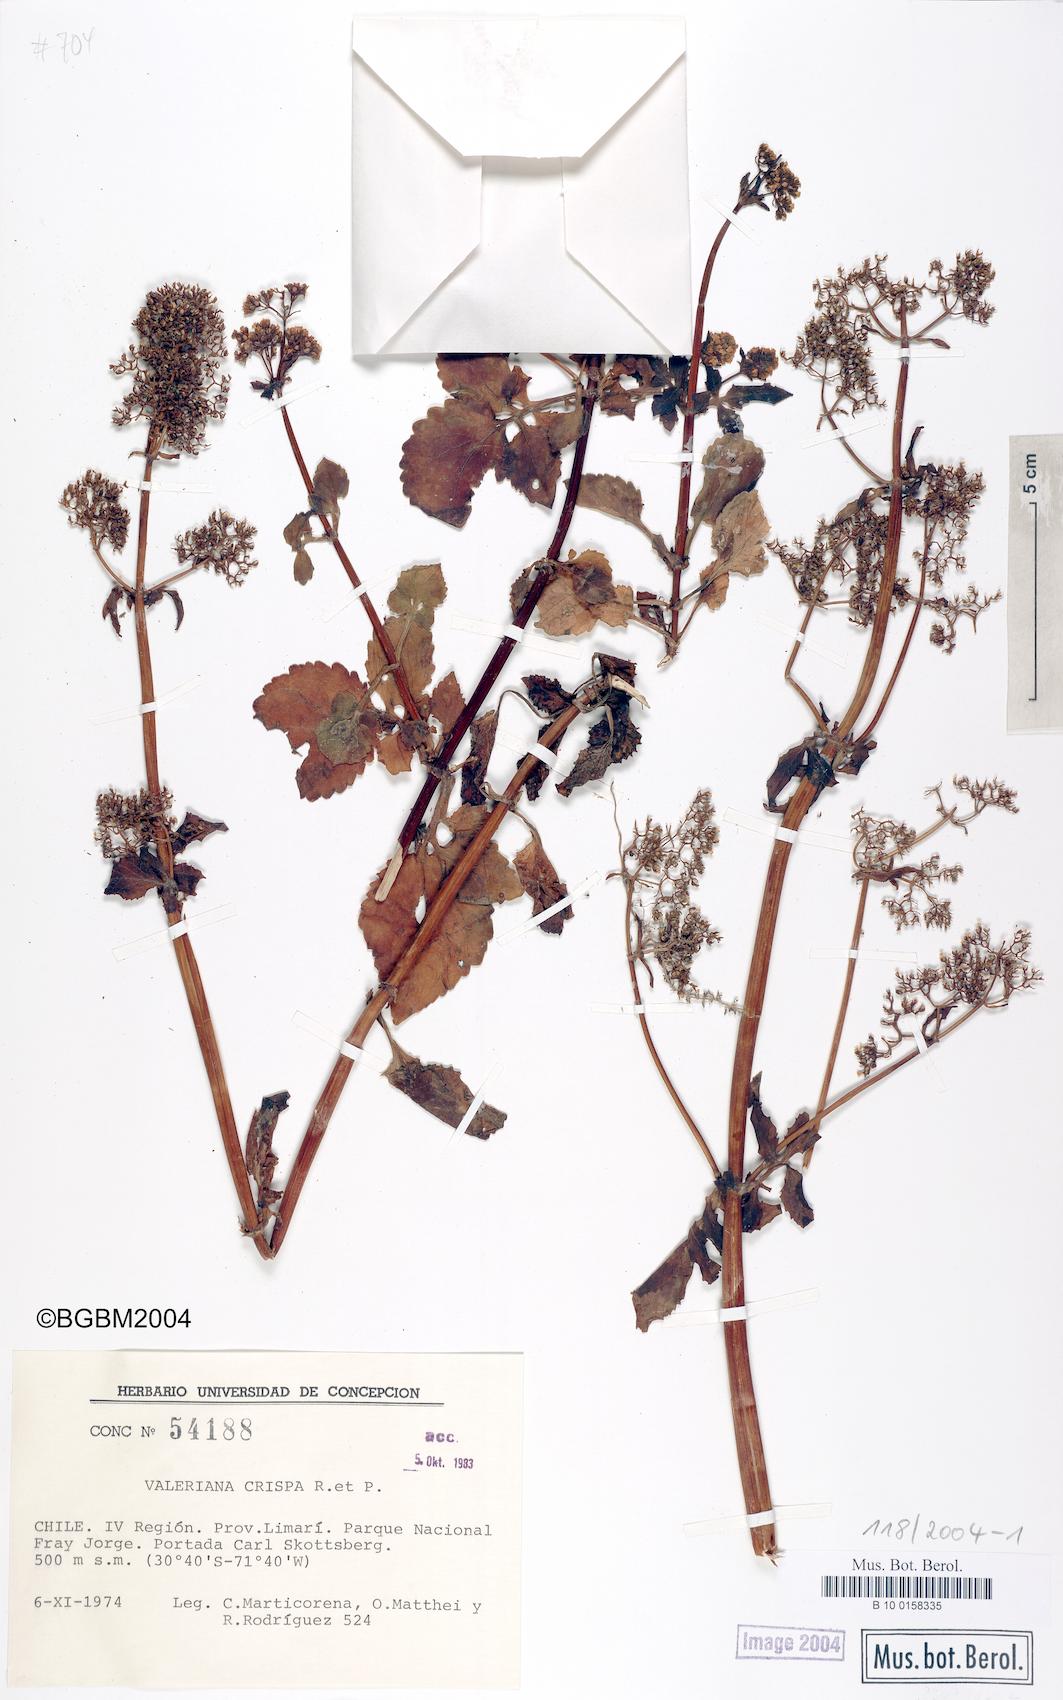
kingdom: Plantae
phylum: Tracheophyta
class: Magnoliopsida
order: Dipsacales
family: Caprifoliaceae
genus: Valeriana
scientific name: Valeriana crispa
